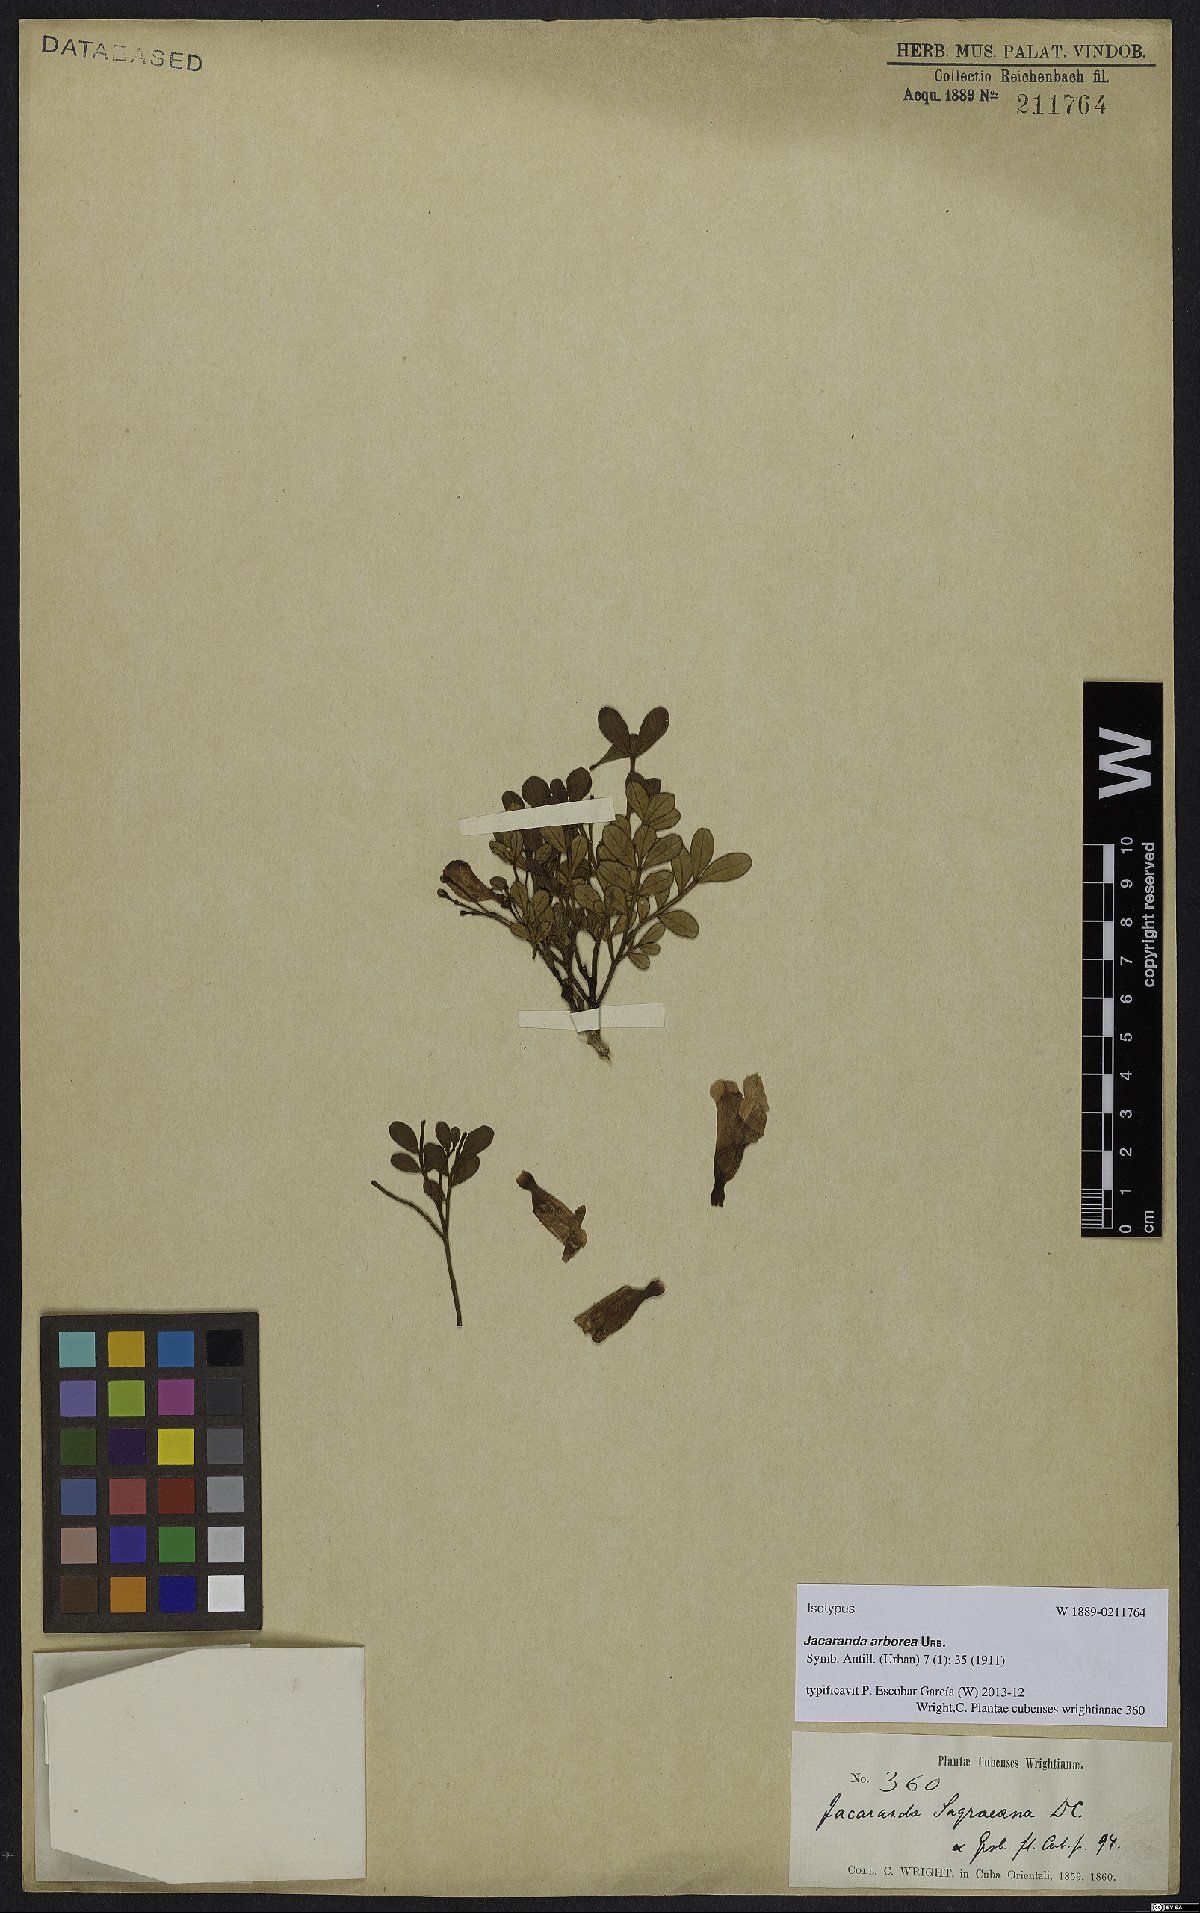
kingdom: Plantae
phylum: Tracheophyta
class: Magnoliopsida
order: Lamiales
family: Bignoniaceae
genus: Jacaranda
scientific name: Jacaranda arborea
